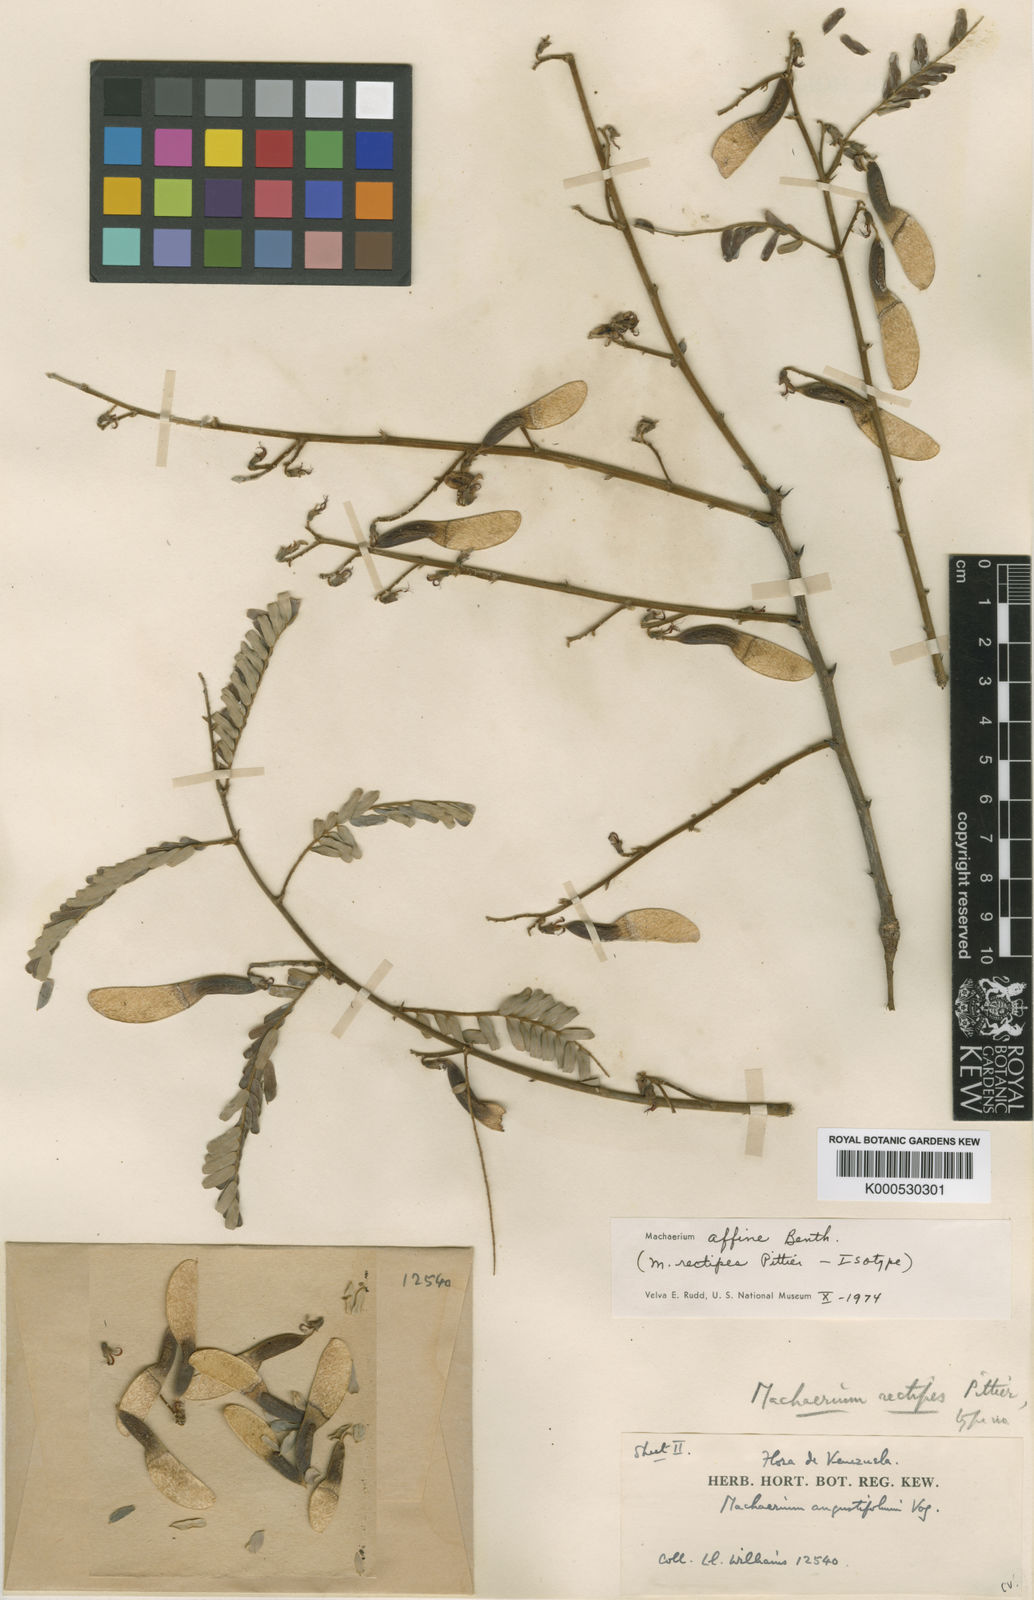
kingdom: Plantae
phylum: Tracheophyta
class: Magnoliopsida
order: Fabales
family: Fabaceae
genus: Machaerium
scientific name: Machaerium hirtum
